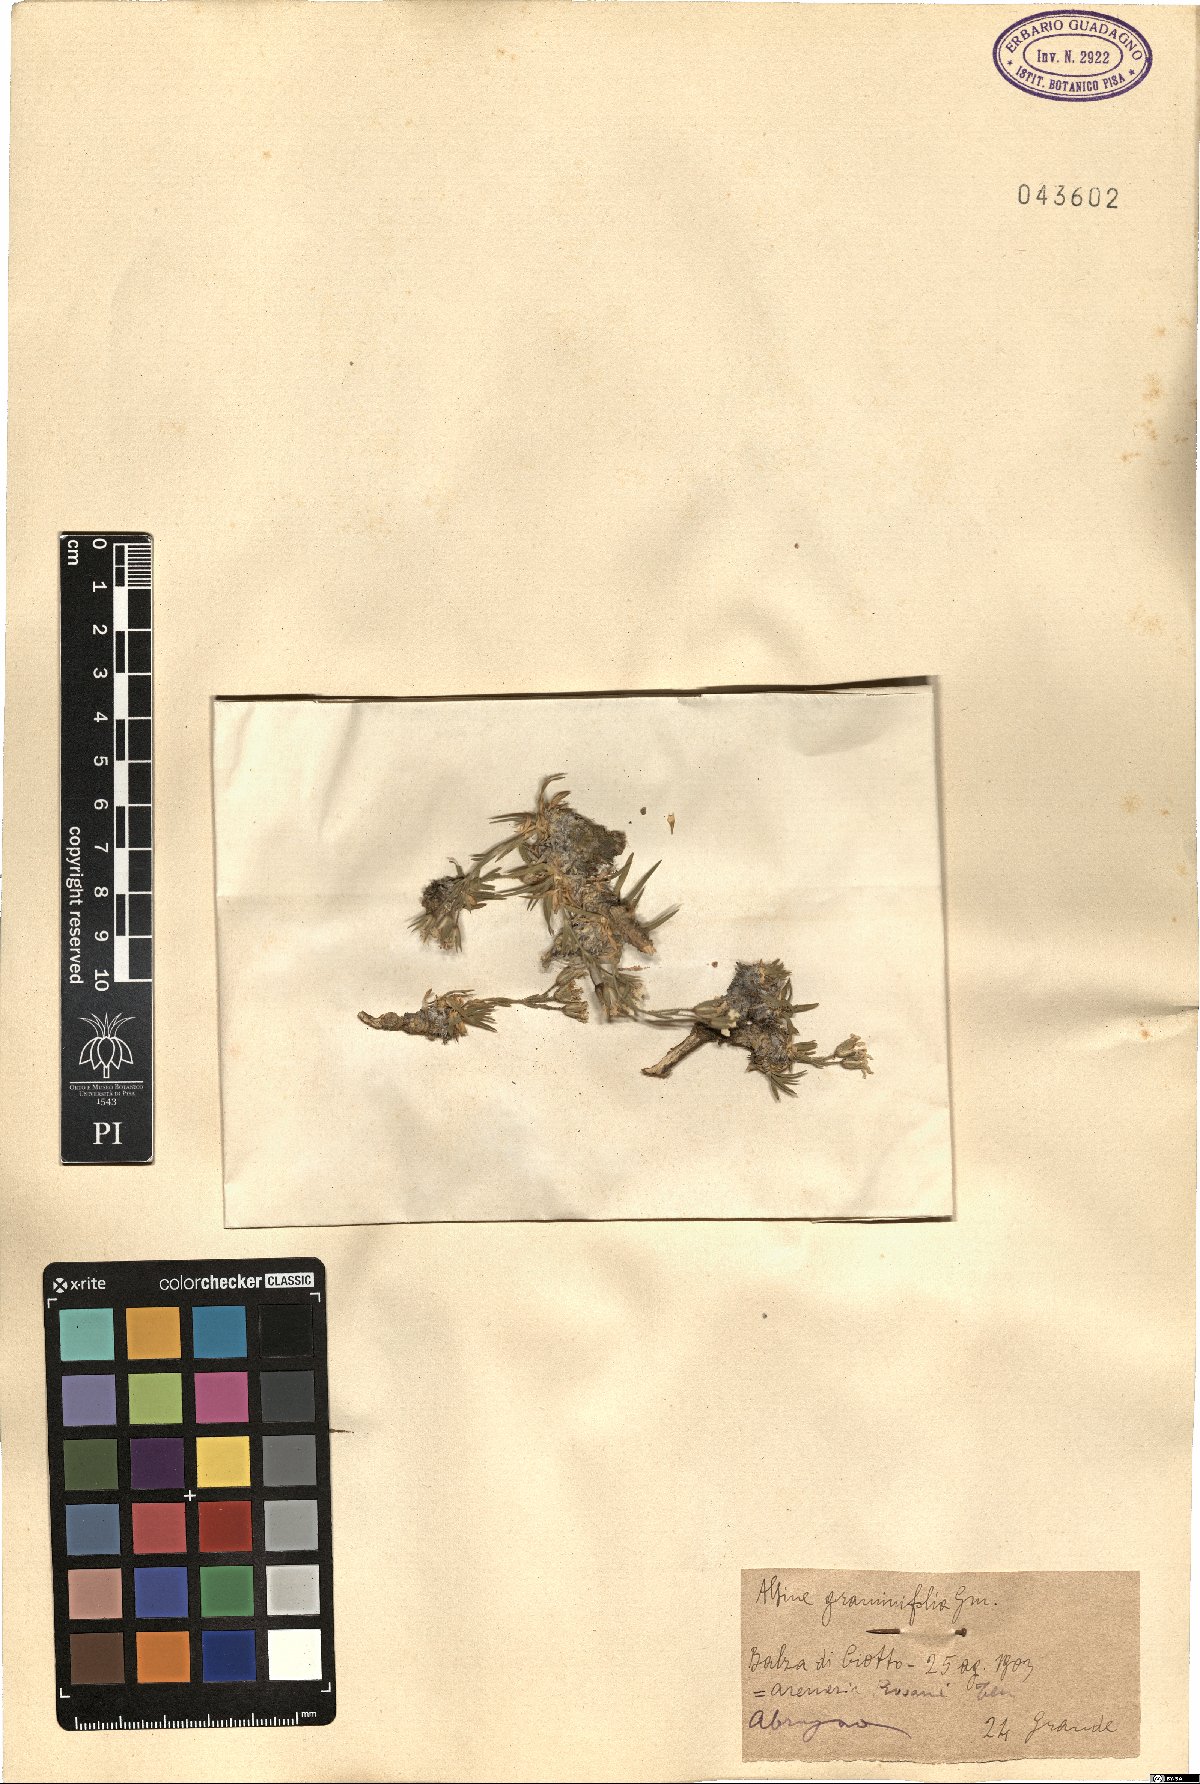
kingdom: Plantae
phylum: Tracheophyta
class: Magnoliopsida
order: Caryophyllales
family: Caryophyllaceae
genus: Mcneillia
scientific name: Mcneillia graminifolia
